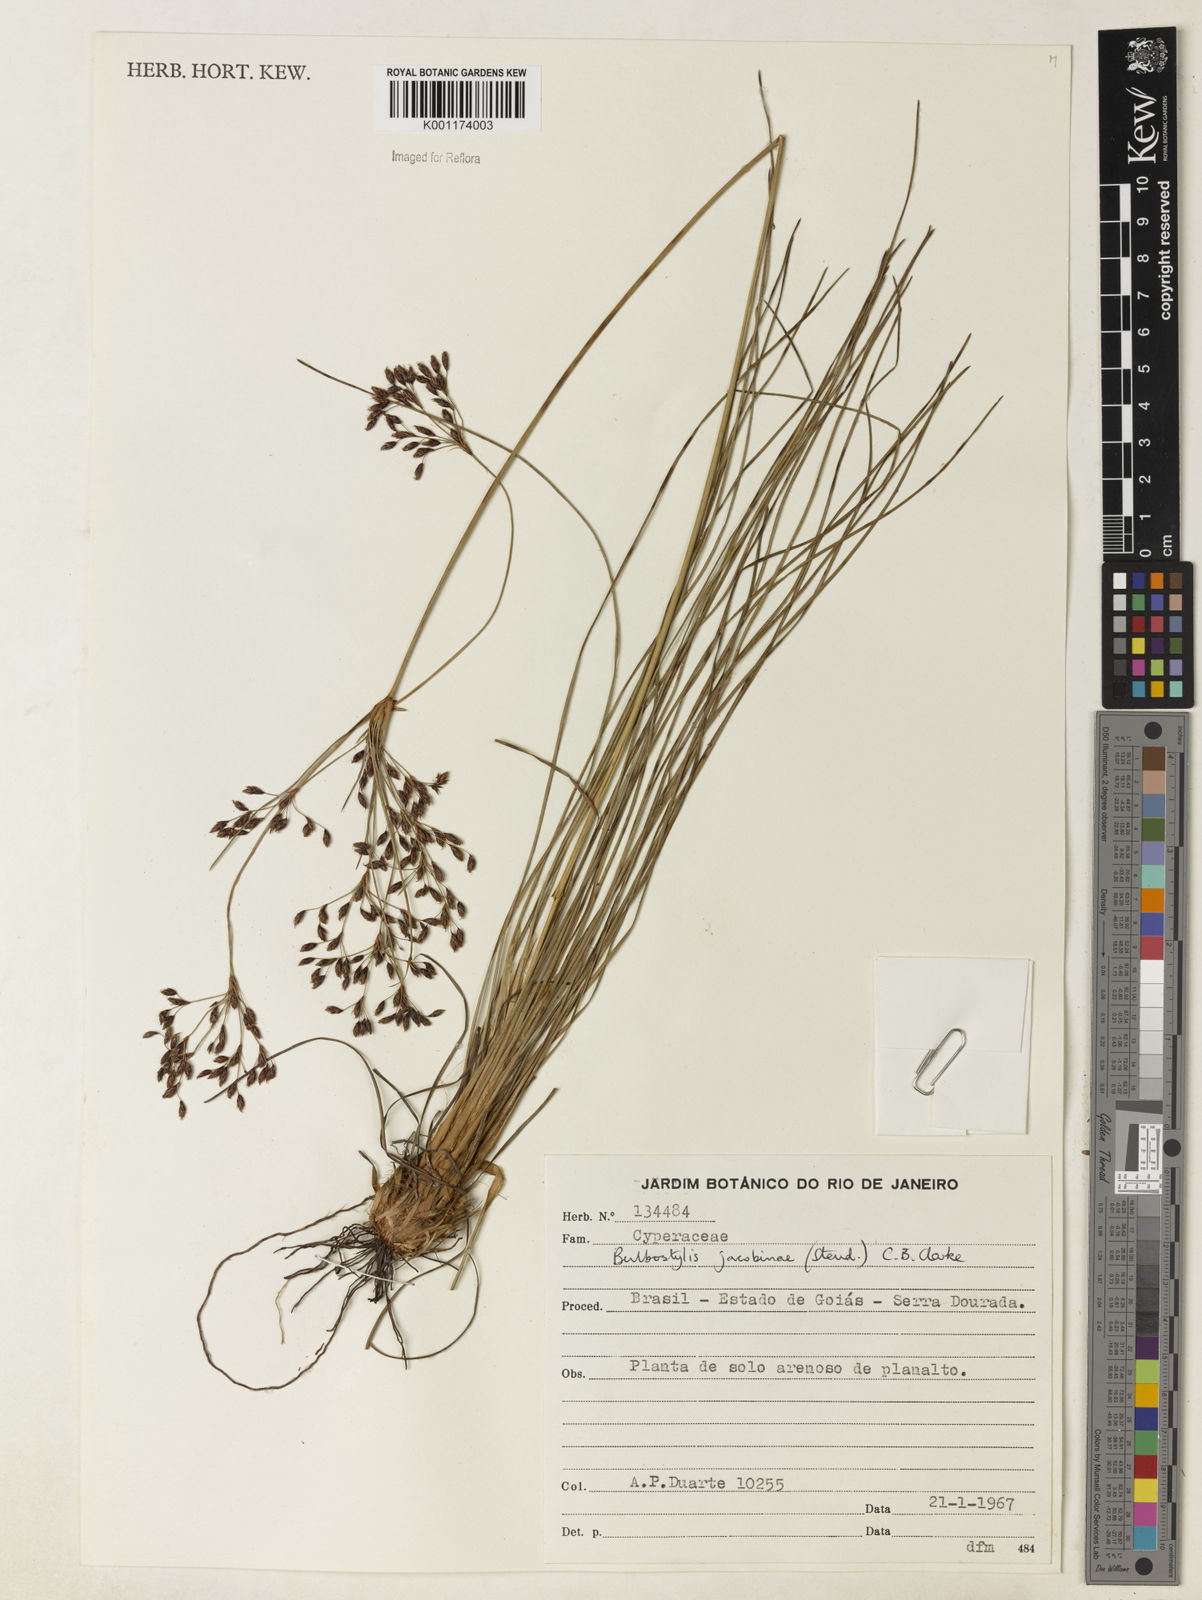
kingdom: Plantae
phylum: Tracheophyta
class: Liliopsida
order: Poales
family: Cyperaceae
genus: Bulbostylis
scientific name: Bulbostylis jacobinae
